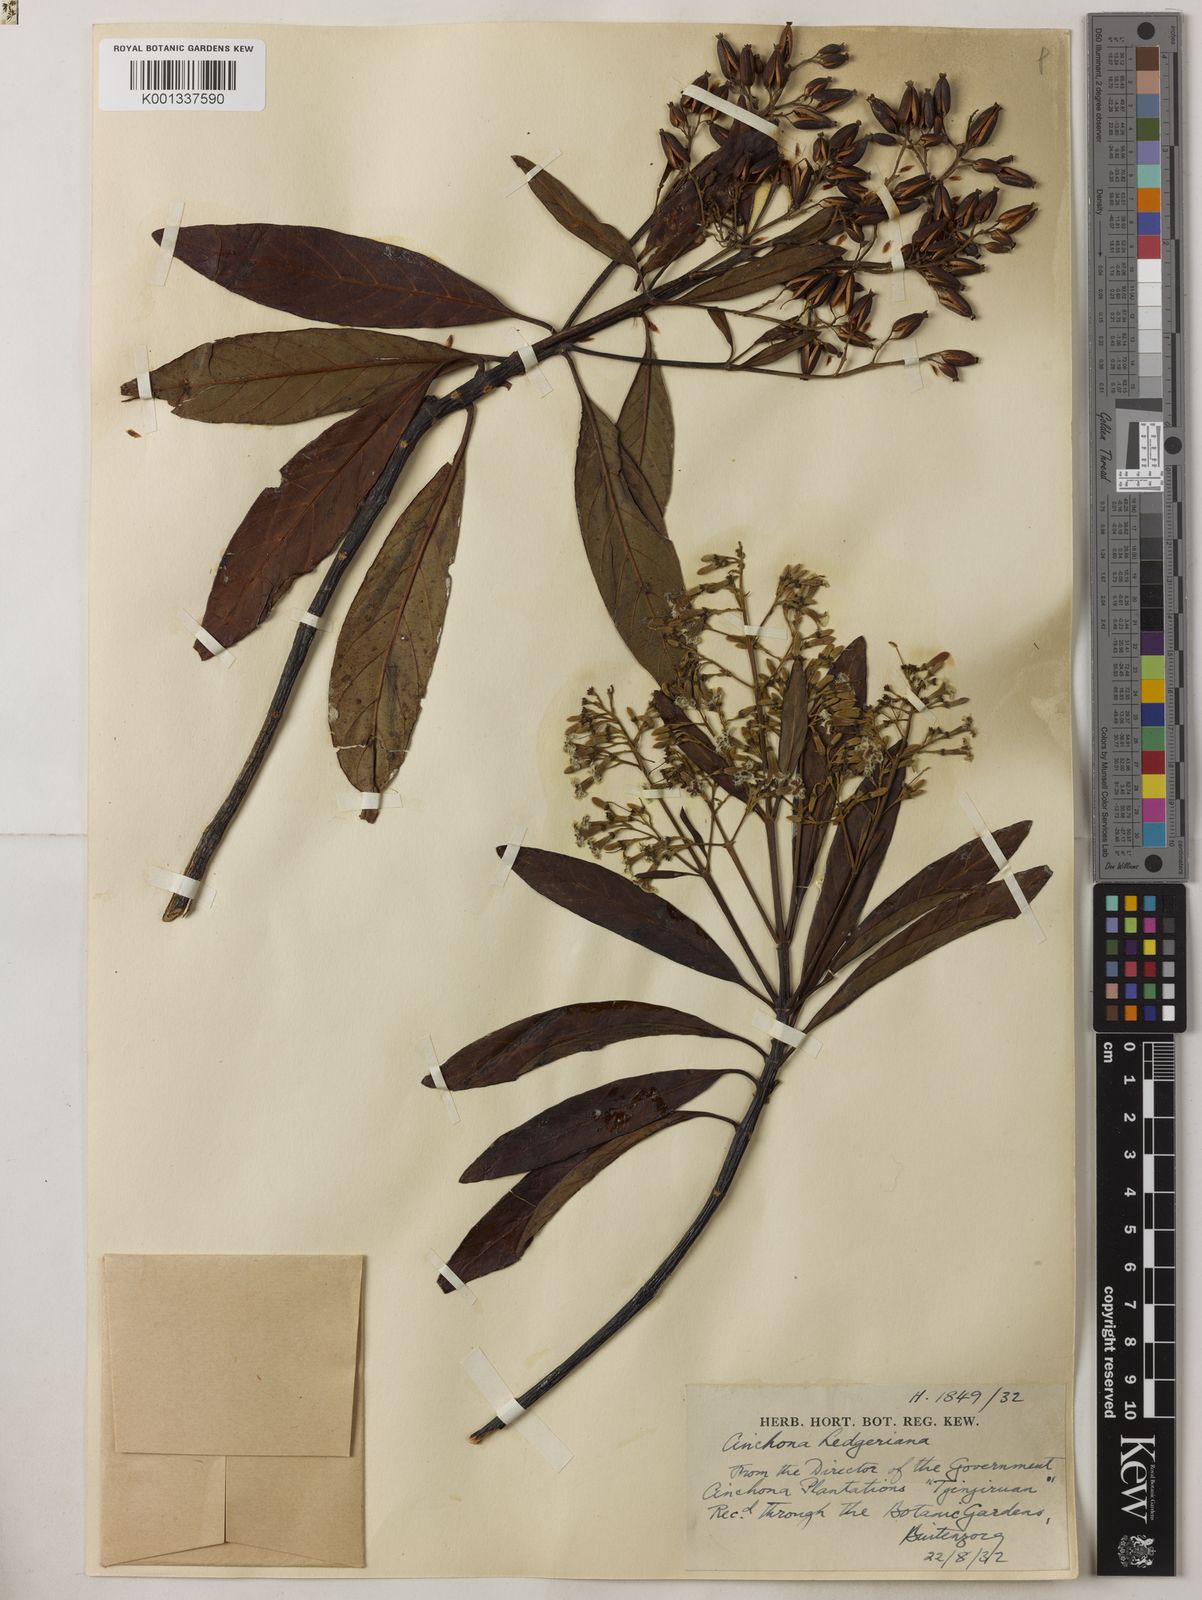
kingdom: Plantae
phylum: Tracheophyta
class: Magnoliopsida
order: Gentianales
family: Rubiaceae
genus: Cinchona
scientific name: Cinchona calisaya
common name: Ledgerbark
